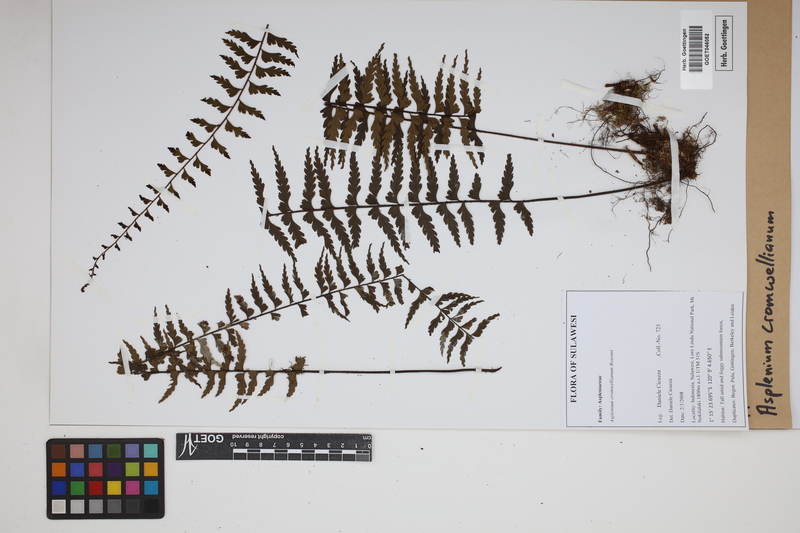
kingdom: Plantae
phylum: Tracheophyta
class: Polypodiopsida
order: Polypodiales
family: Aspleniaceae
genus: Asplenium
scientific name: Asplenium lobulatum
